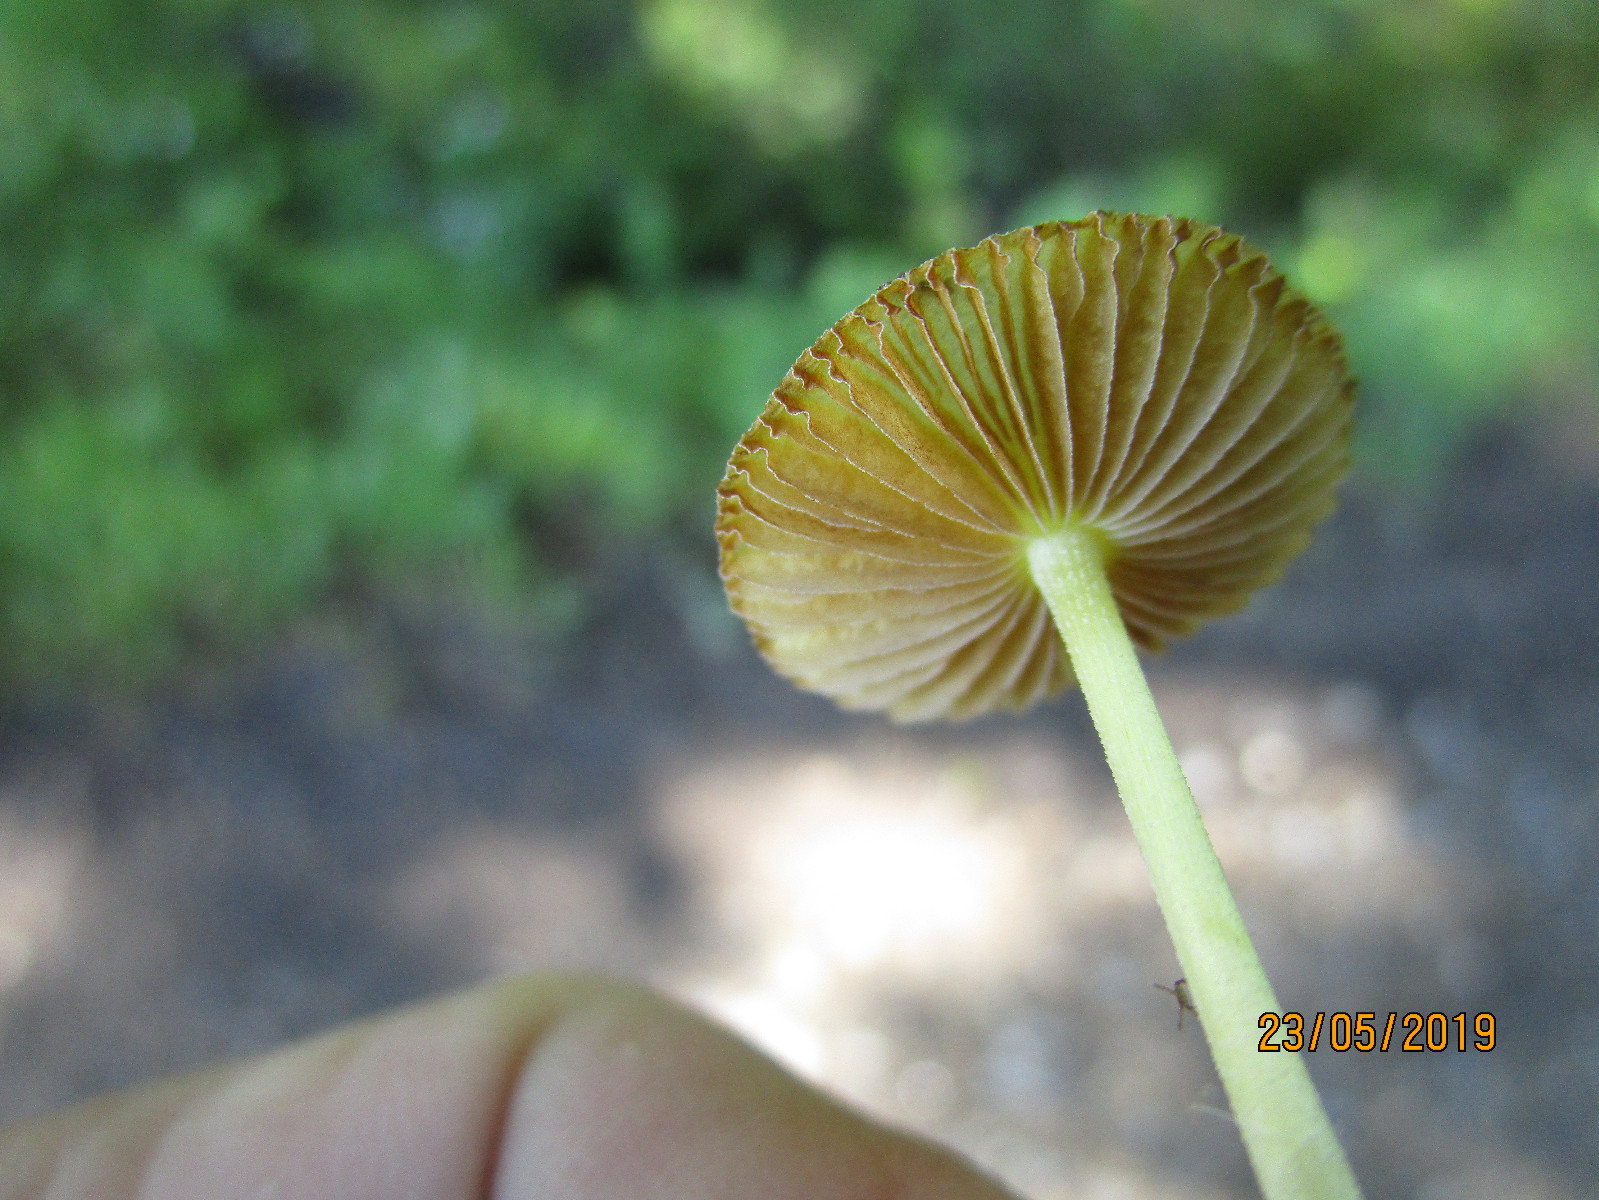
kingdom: Fungi
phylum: Basidiomycota
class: Agaricomycetes
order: Agaricales
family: Bolbitiaceae
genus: Bolbitius
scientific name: Bolbitius titubans
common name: almindelig gulhat
